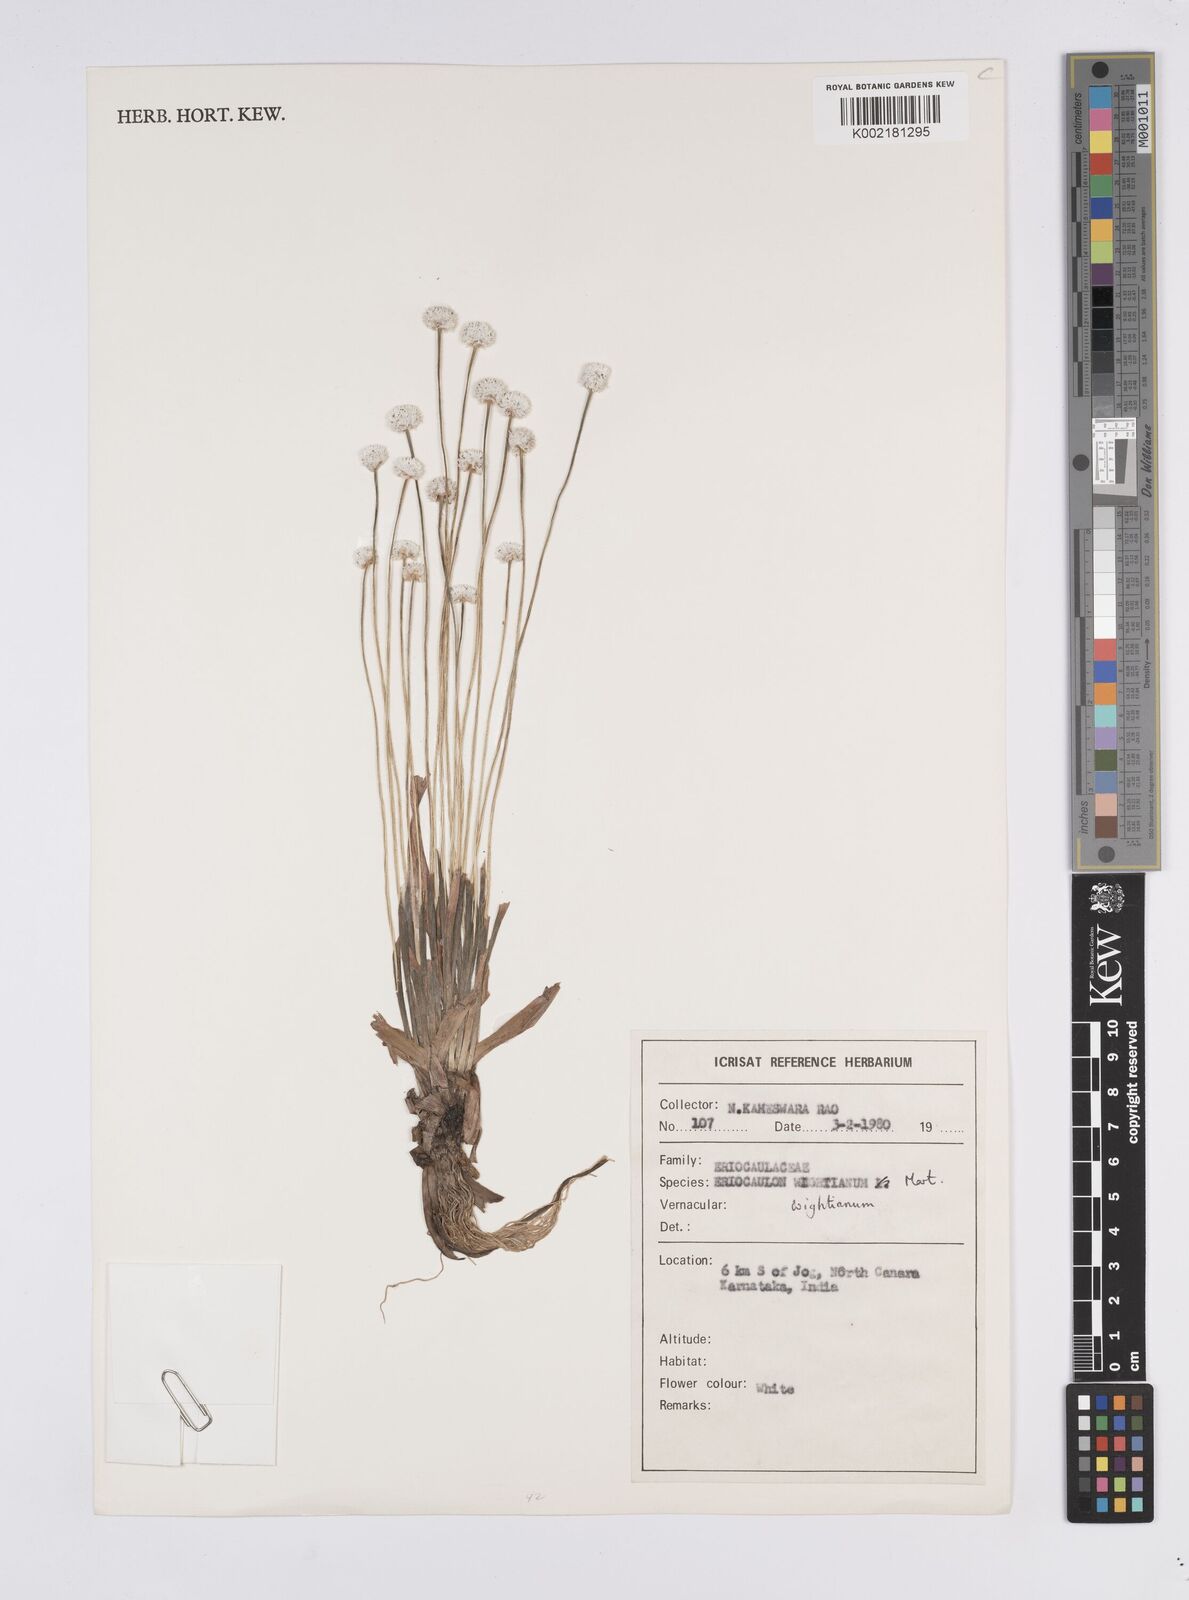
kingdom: Plantae
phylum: Tracheophyta
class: Liliopsida
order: Poales
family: Eriocaulaceae
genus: Eriocaulon
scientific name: Eriocaulon robustobrownianum
